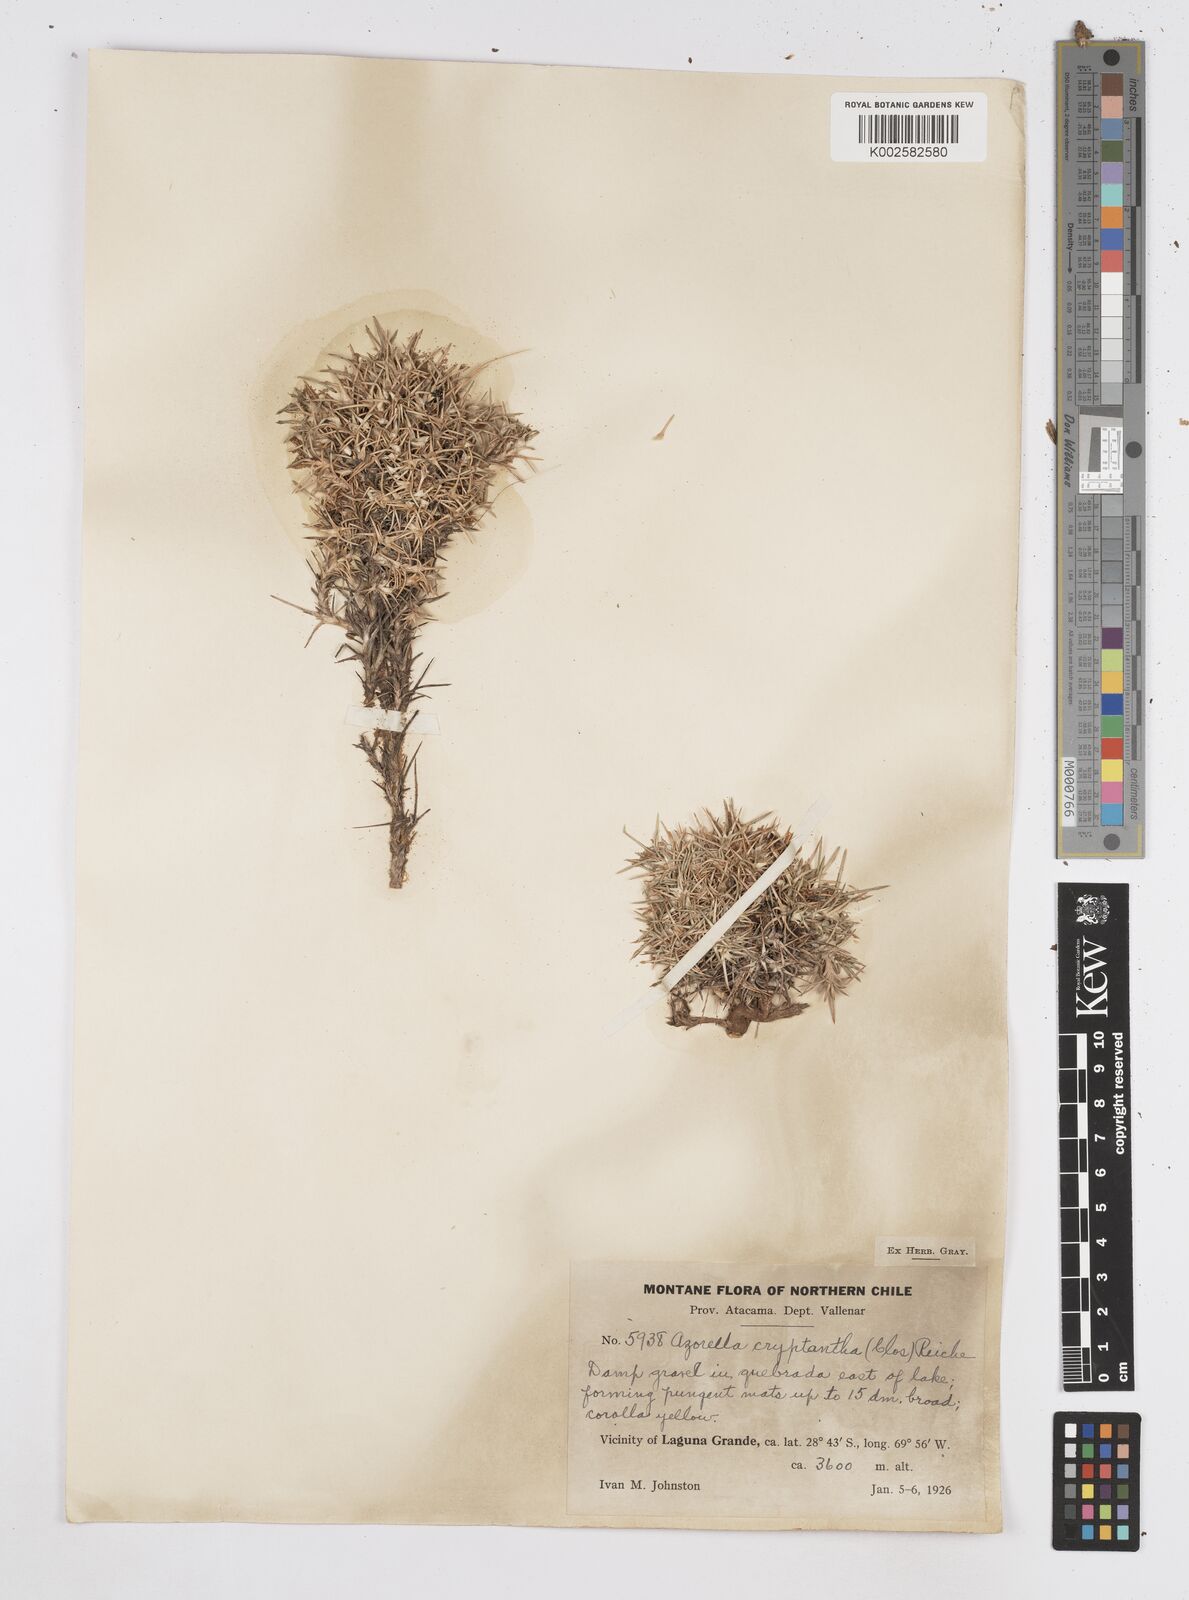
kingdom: Plantae
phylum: Tracheophyta
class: Magnoliopsida
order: Apiales
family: Apiaceae
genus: Azorella
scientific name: Azorella cryptantha
